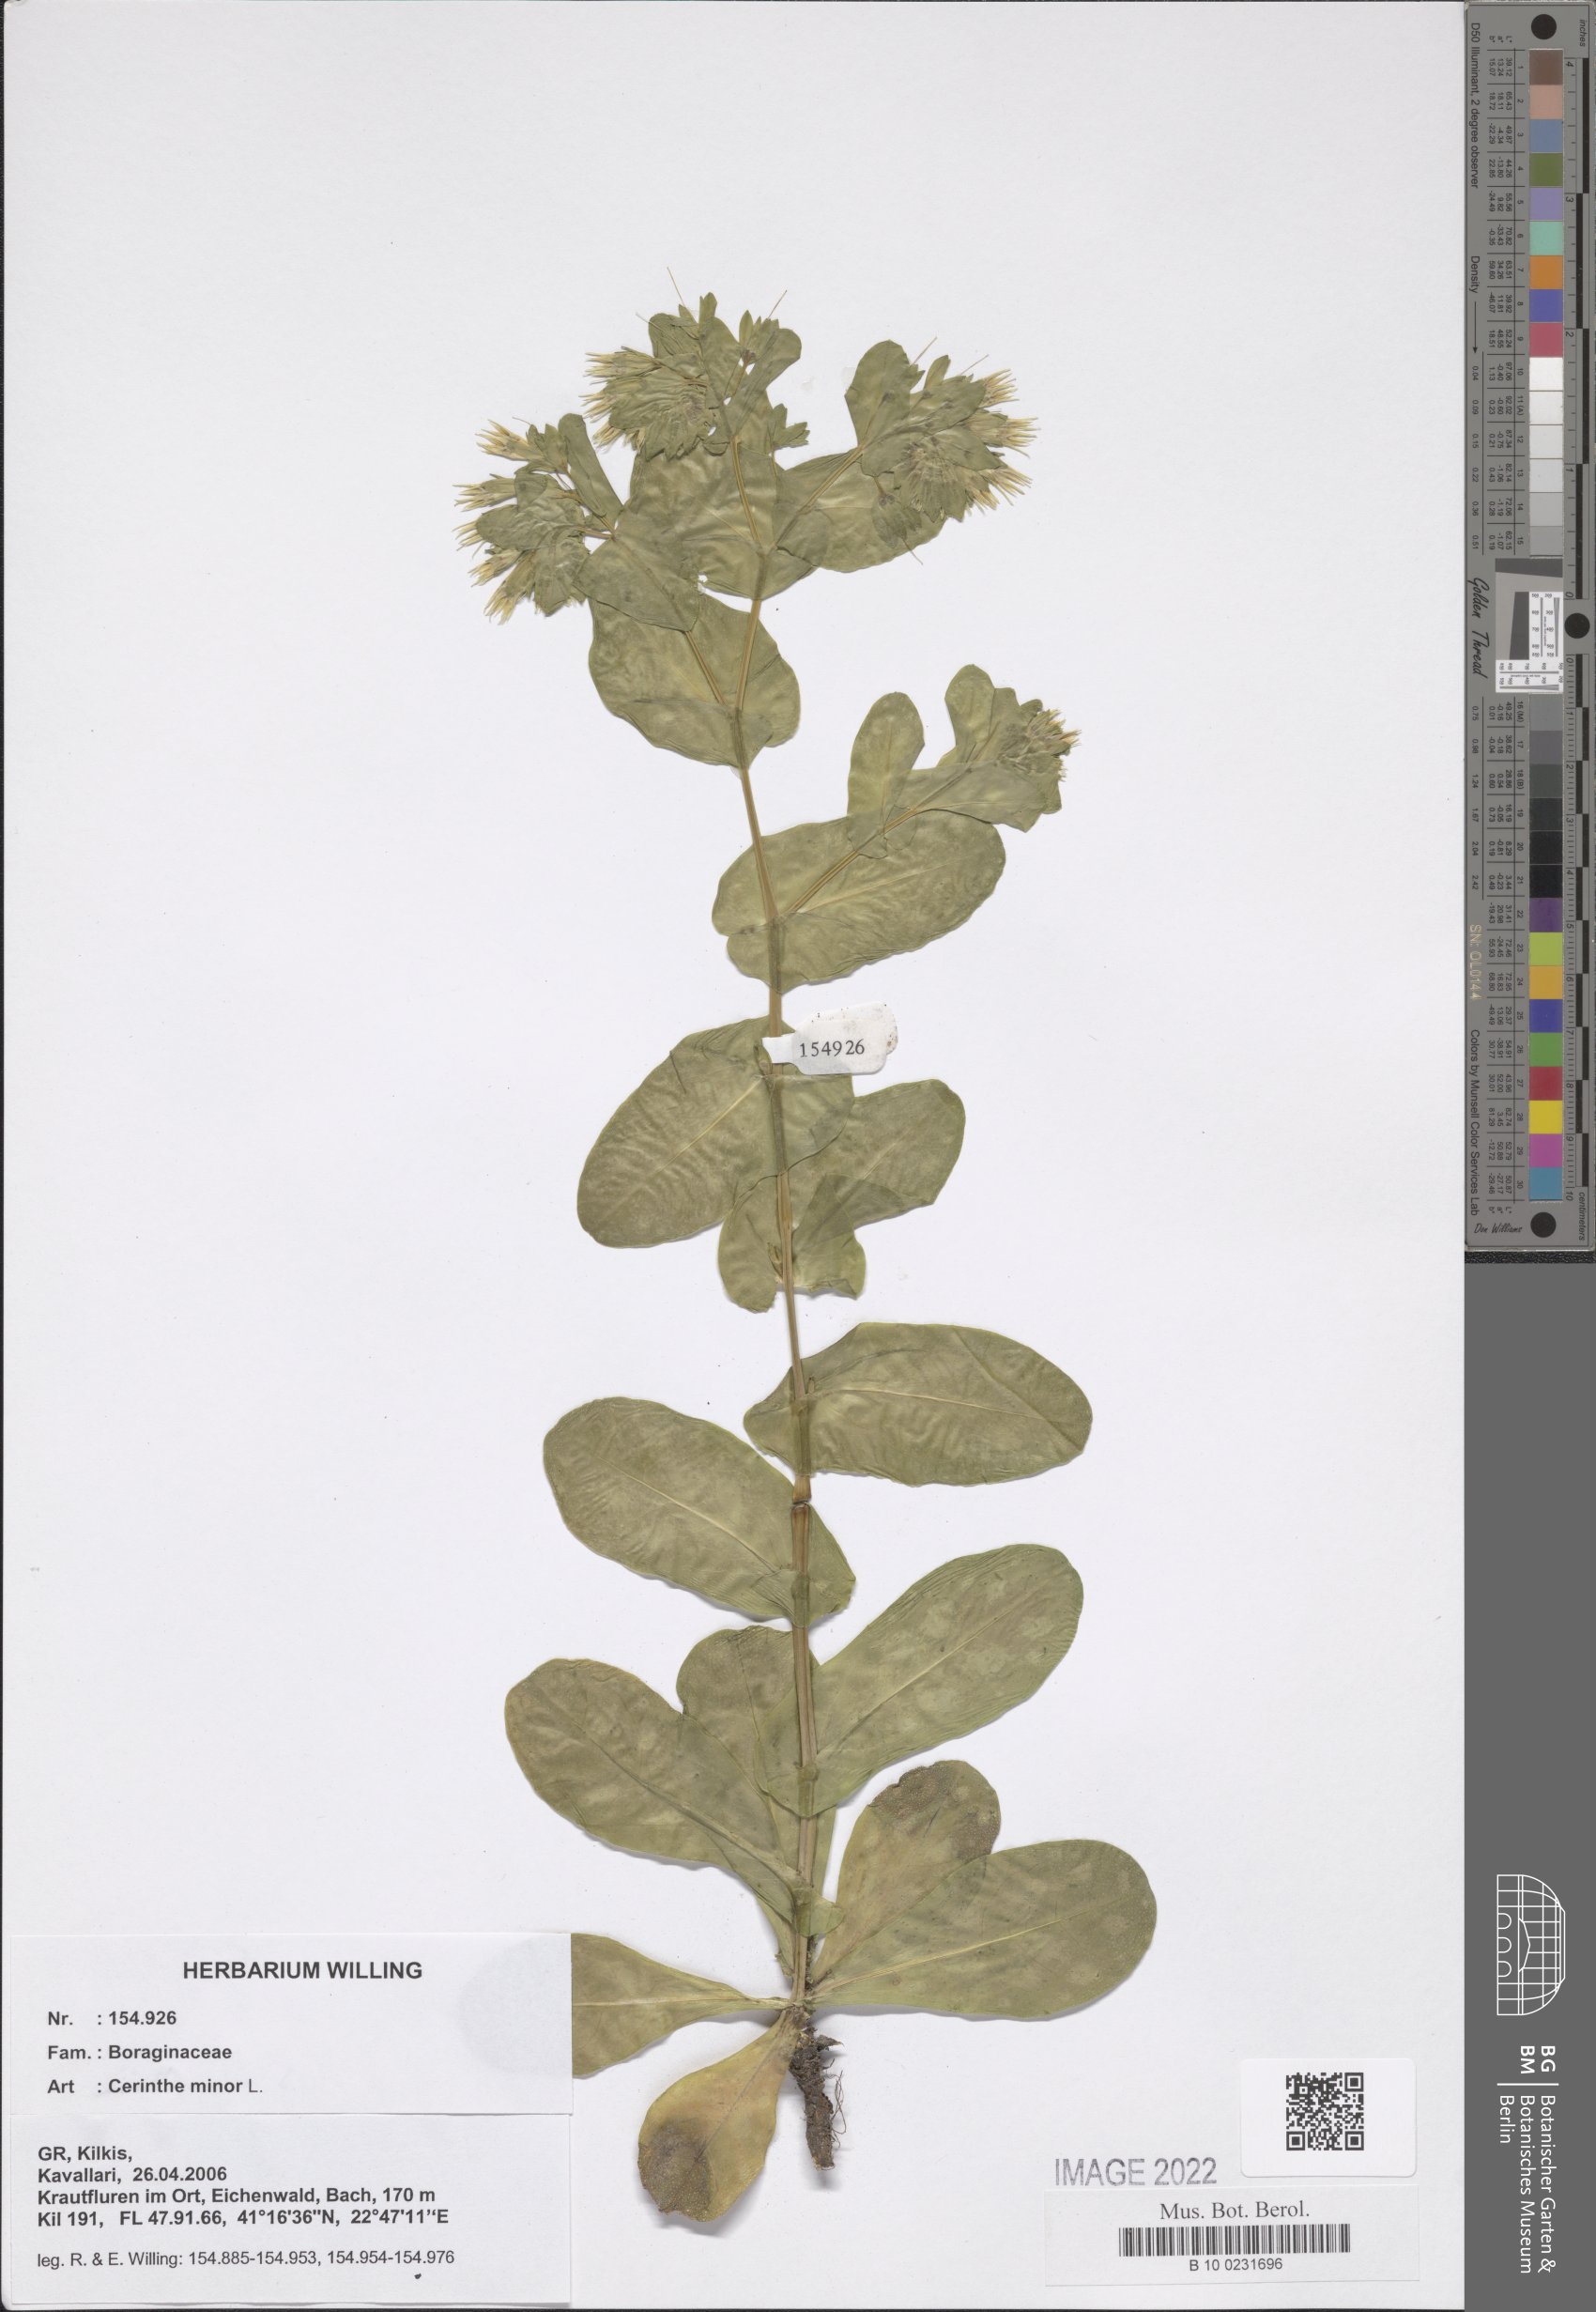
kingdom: Plantae
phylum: Tracheophyta
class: Magnoliopsida
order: Boraginales
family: Boraginaceae
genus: Cerinthe
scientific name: Cerinthe minor
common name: Lesser honeywort
